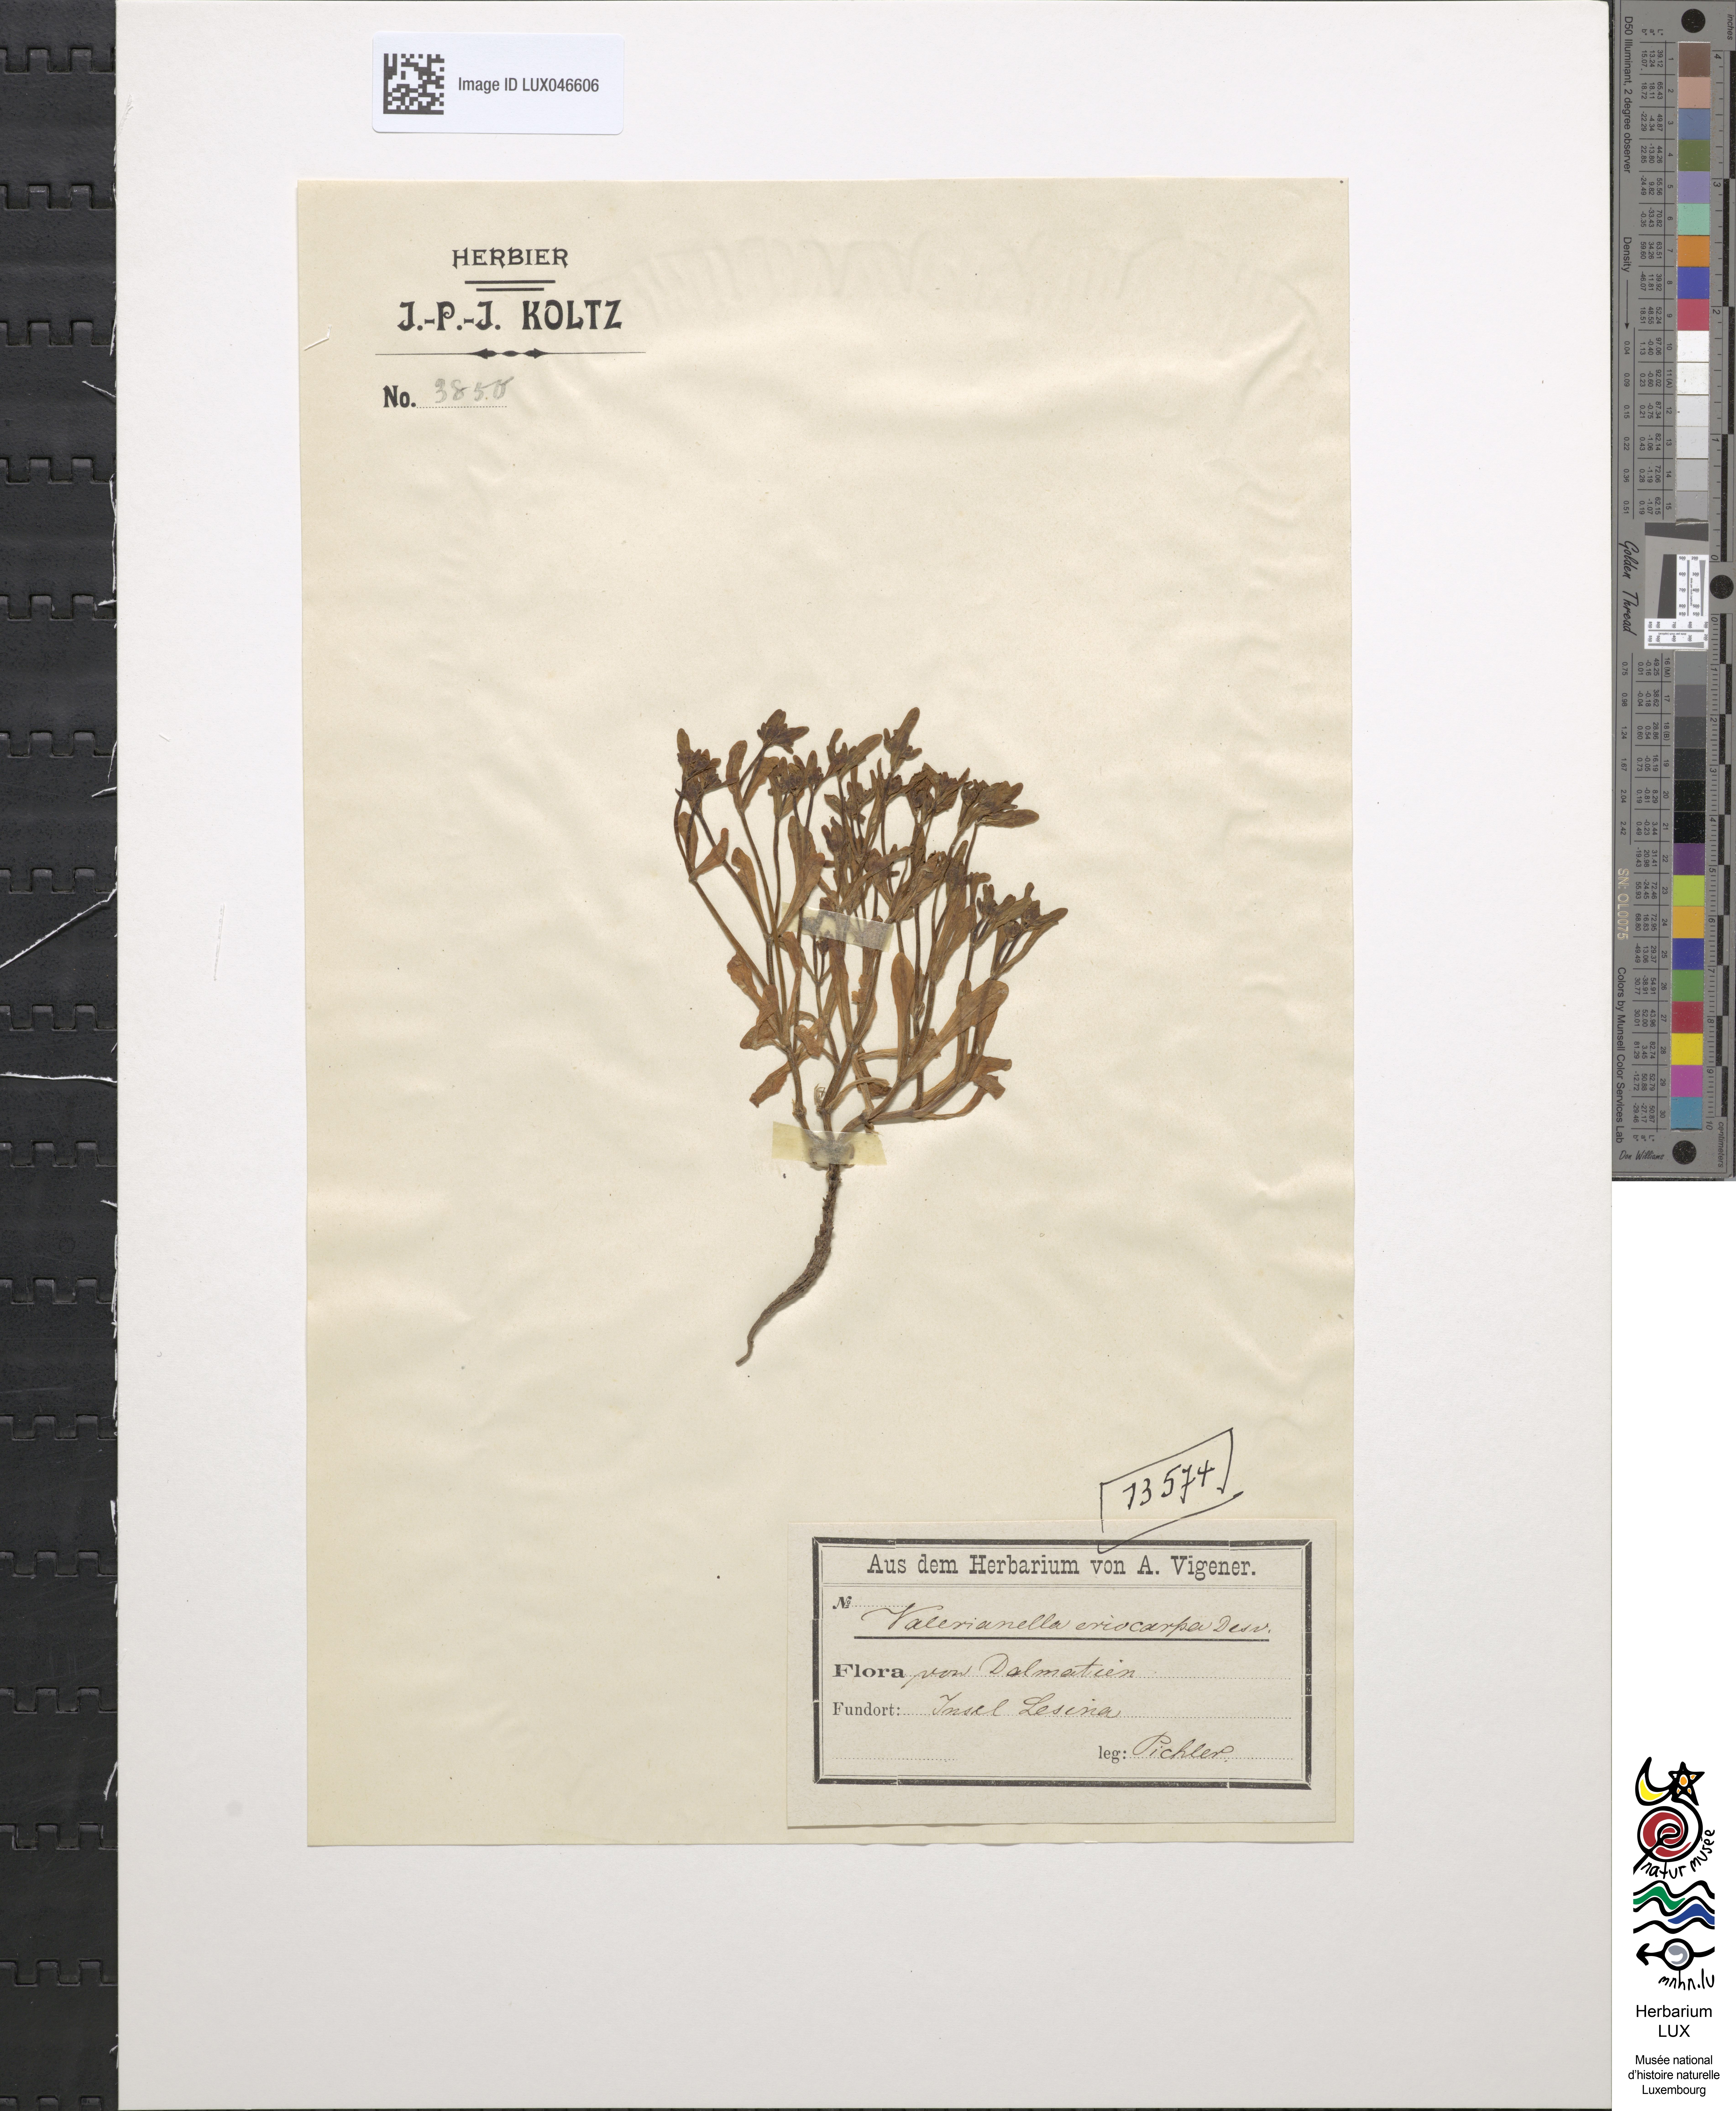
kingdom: Plantae
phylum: Tracheophyta
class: Magnoliopsida
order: Dipsacales
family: Caprifoliaceae
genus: Valerianella
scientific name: Valerianella eriocarpa
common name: Hairy-fruited cornsalad
